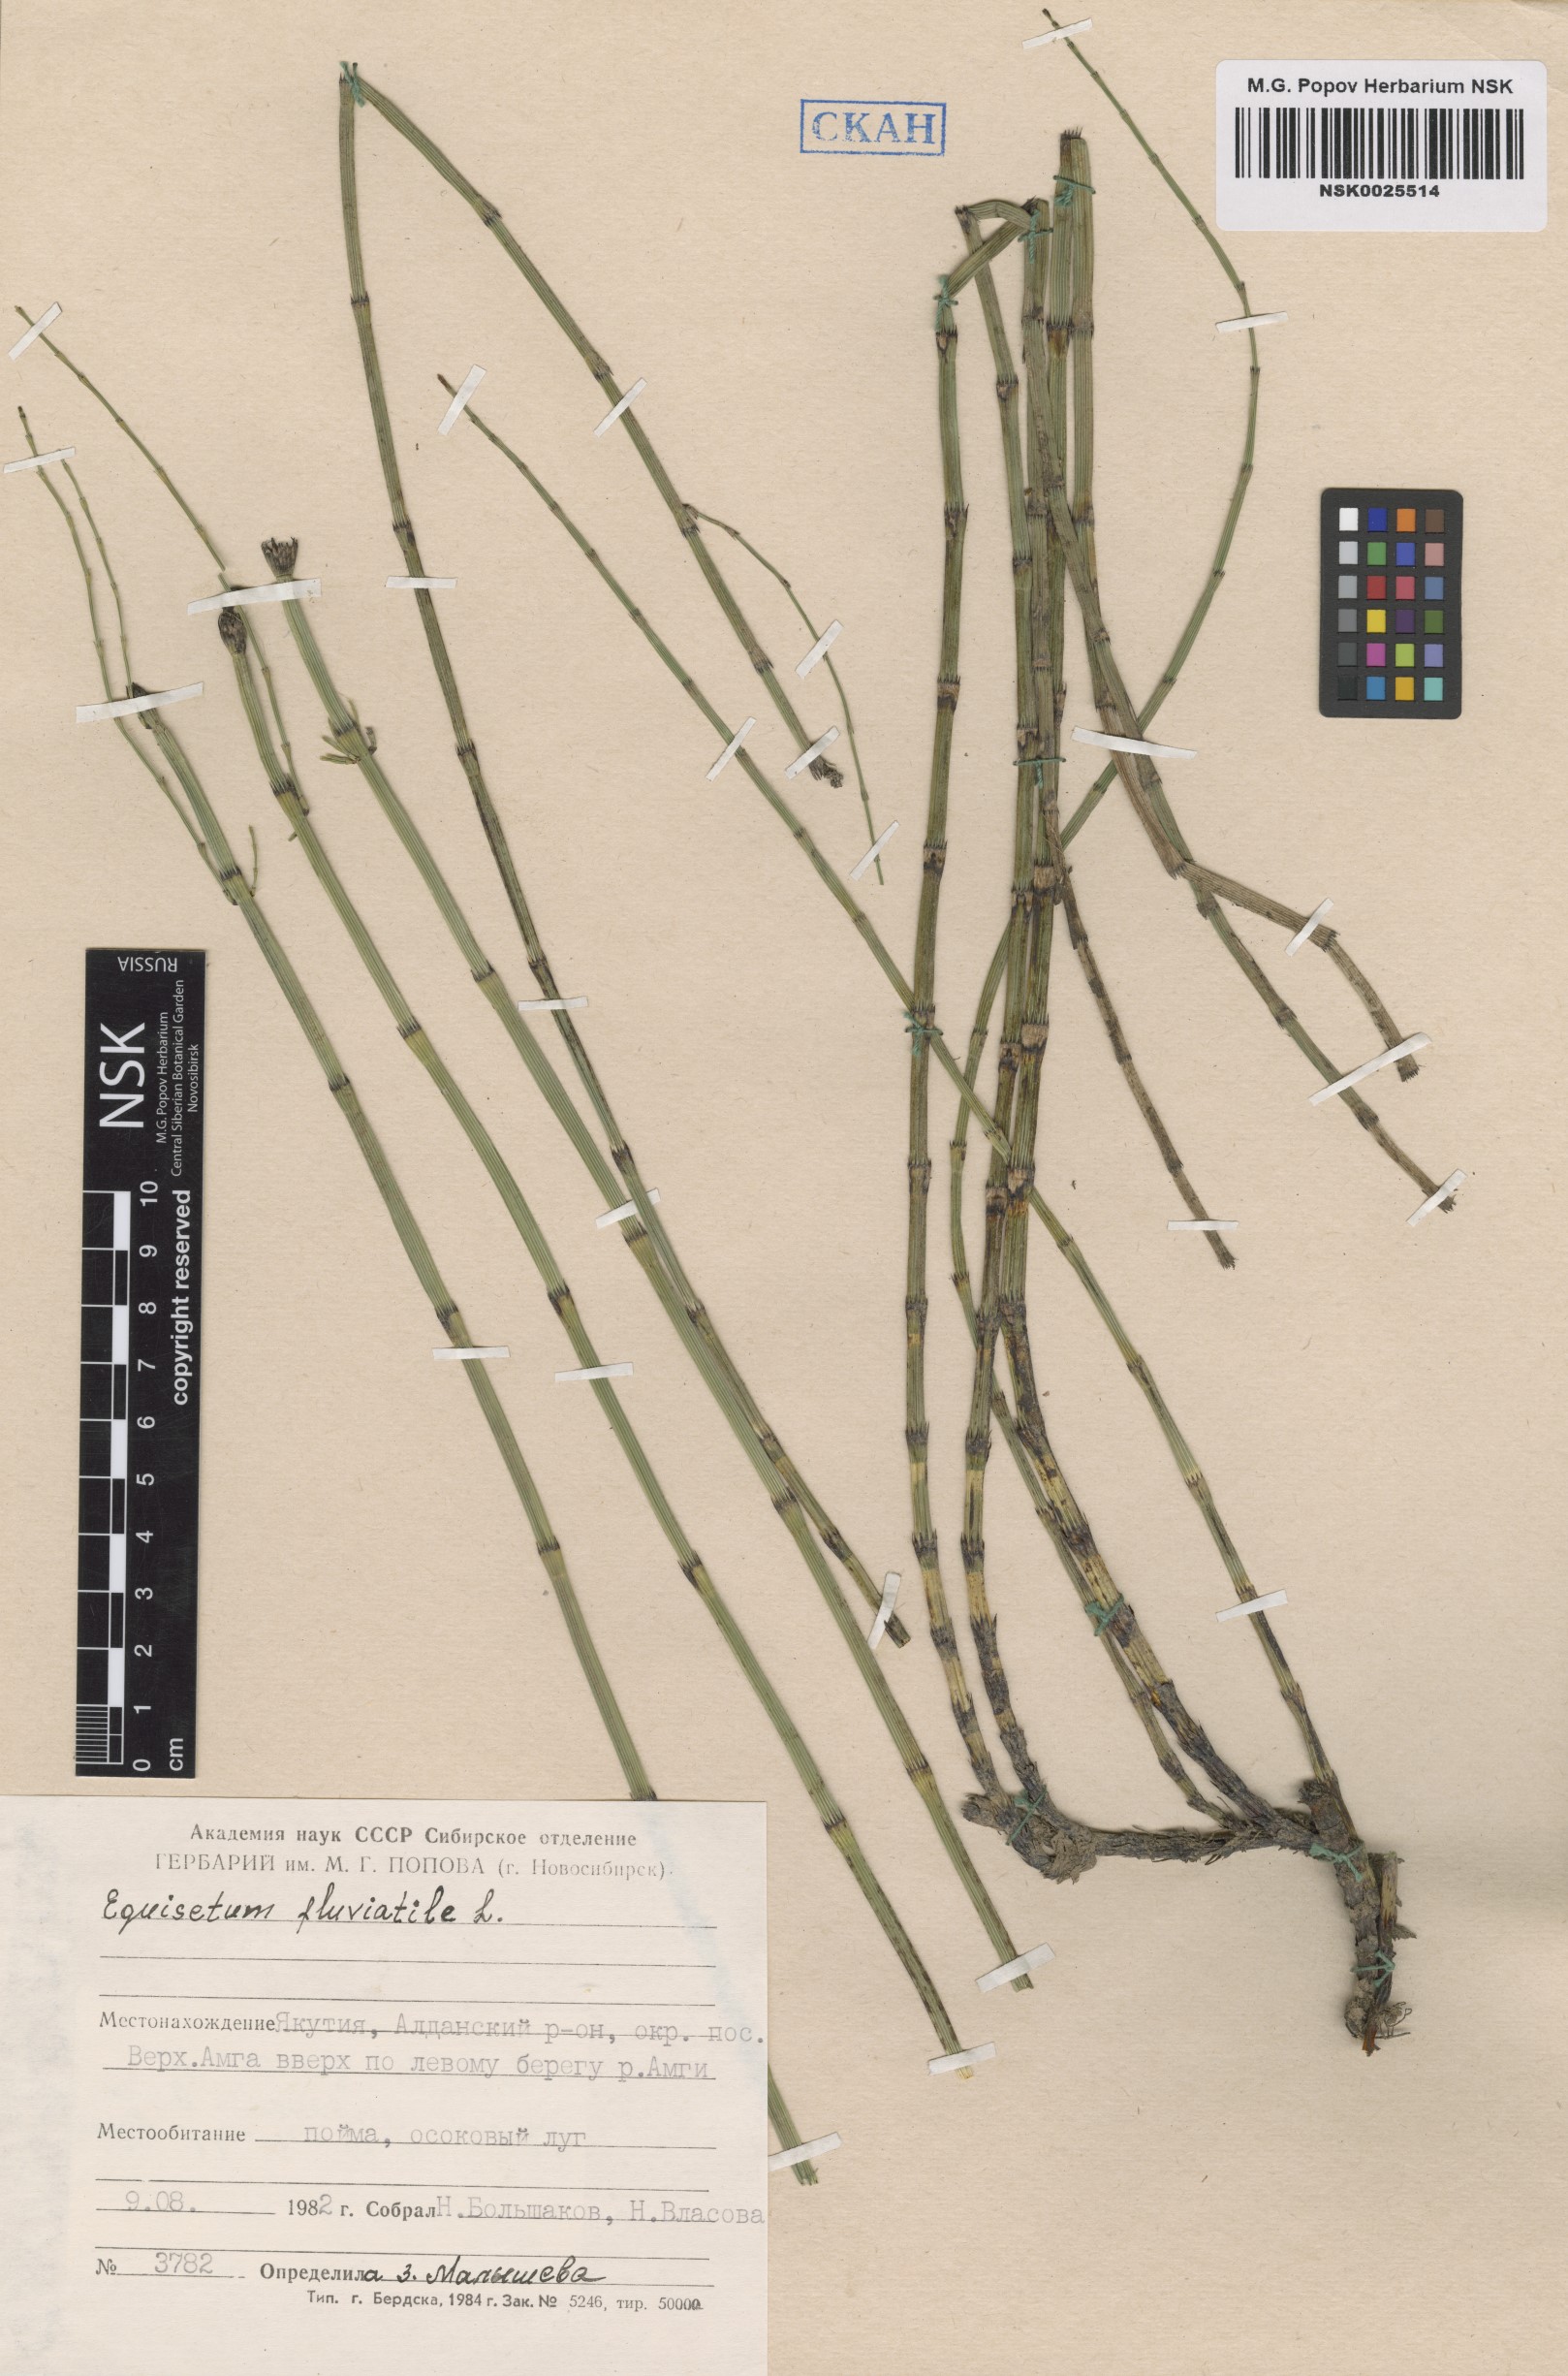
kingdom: Plantae
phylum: Tracheophyta
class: Polypodiopsida
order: Equisetales
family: Equisetaceae
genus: Equisetum
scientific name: Equisetum fluviatile
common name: Water horsetail
